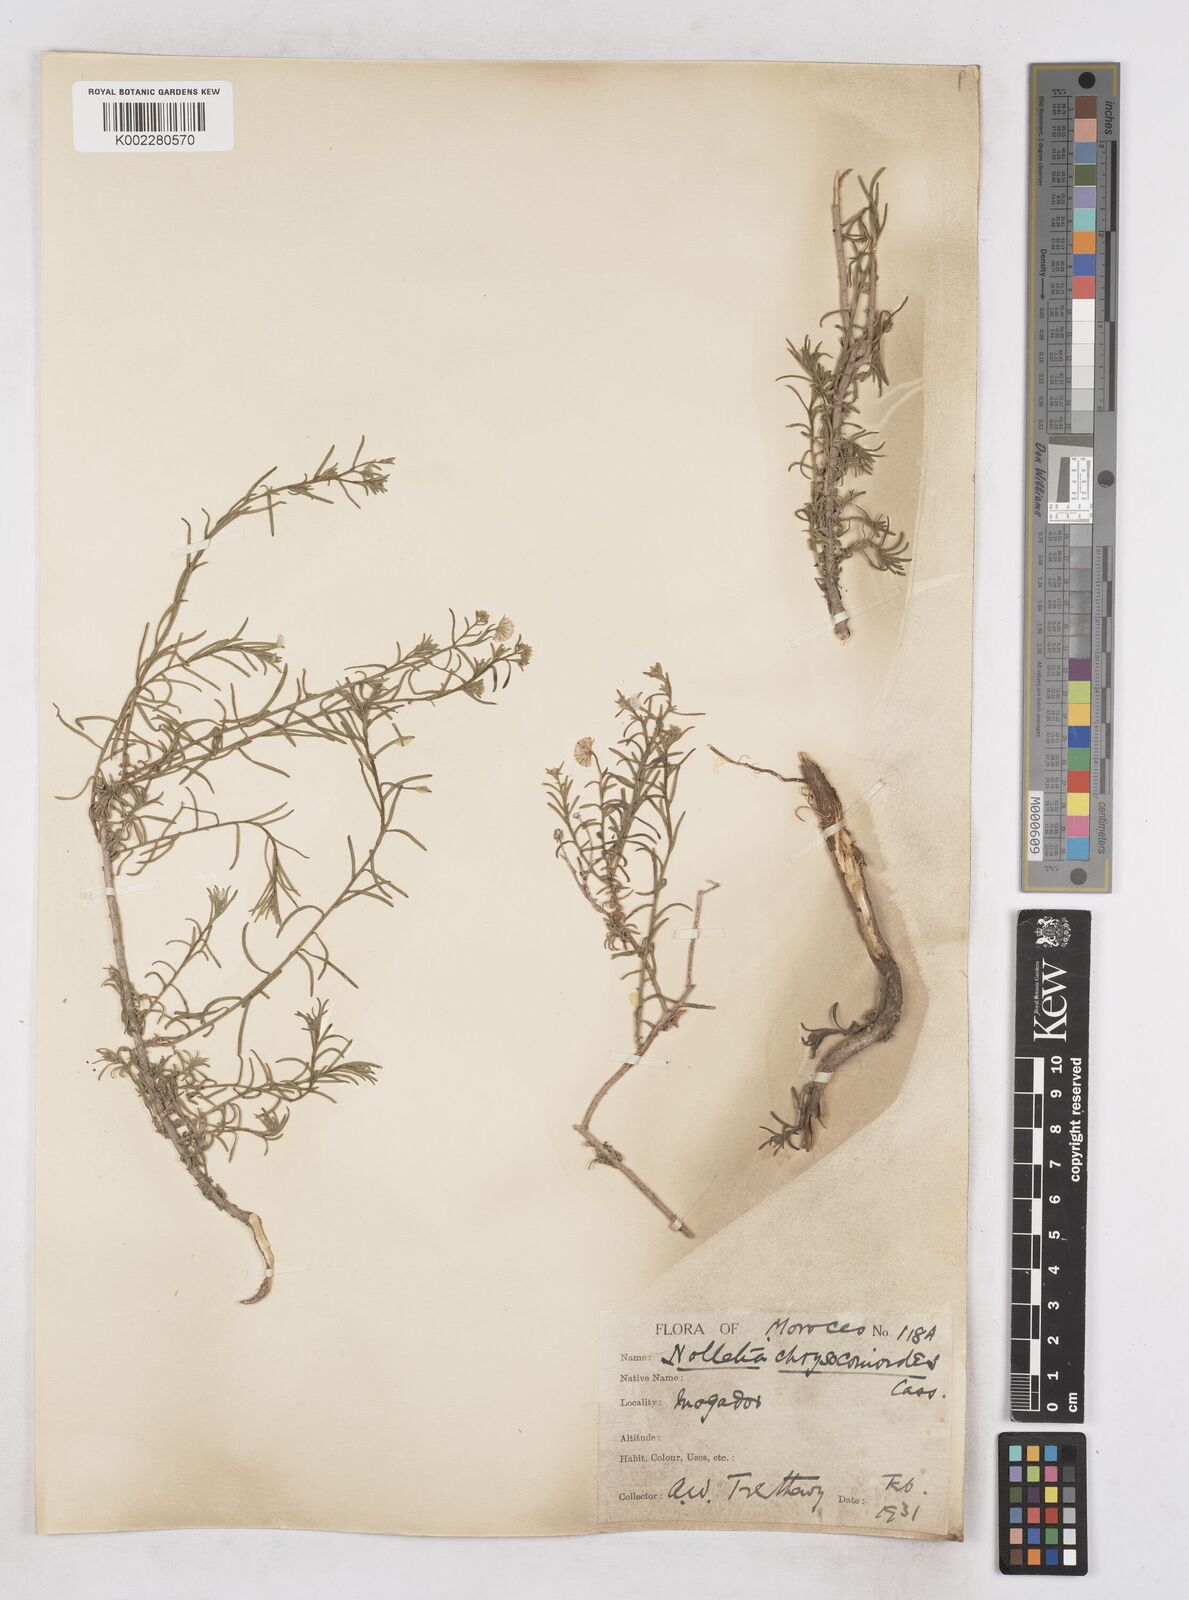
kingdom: Plantae
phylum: Tracheophyta
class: Magnoliopsida
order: Asterales
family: Asteraceae
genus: Nolletia
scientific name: Nolletia chrysocomoides
